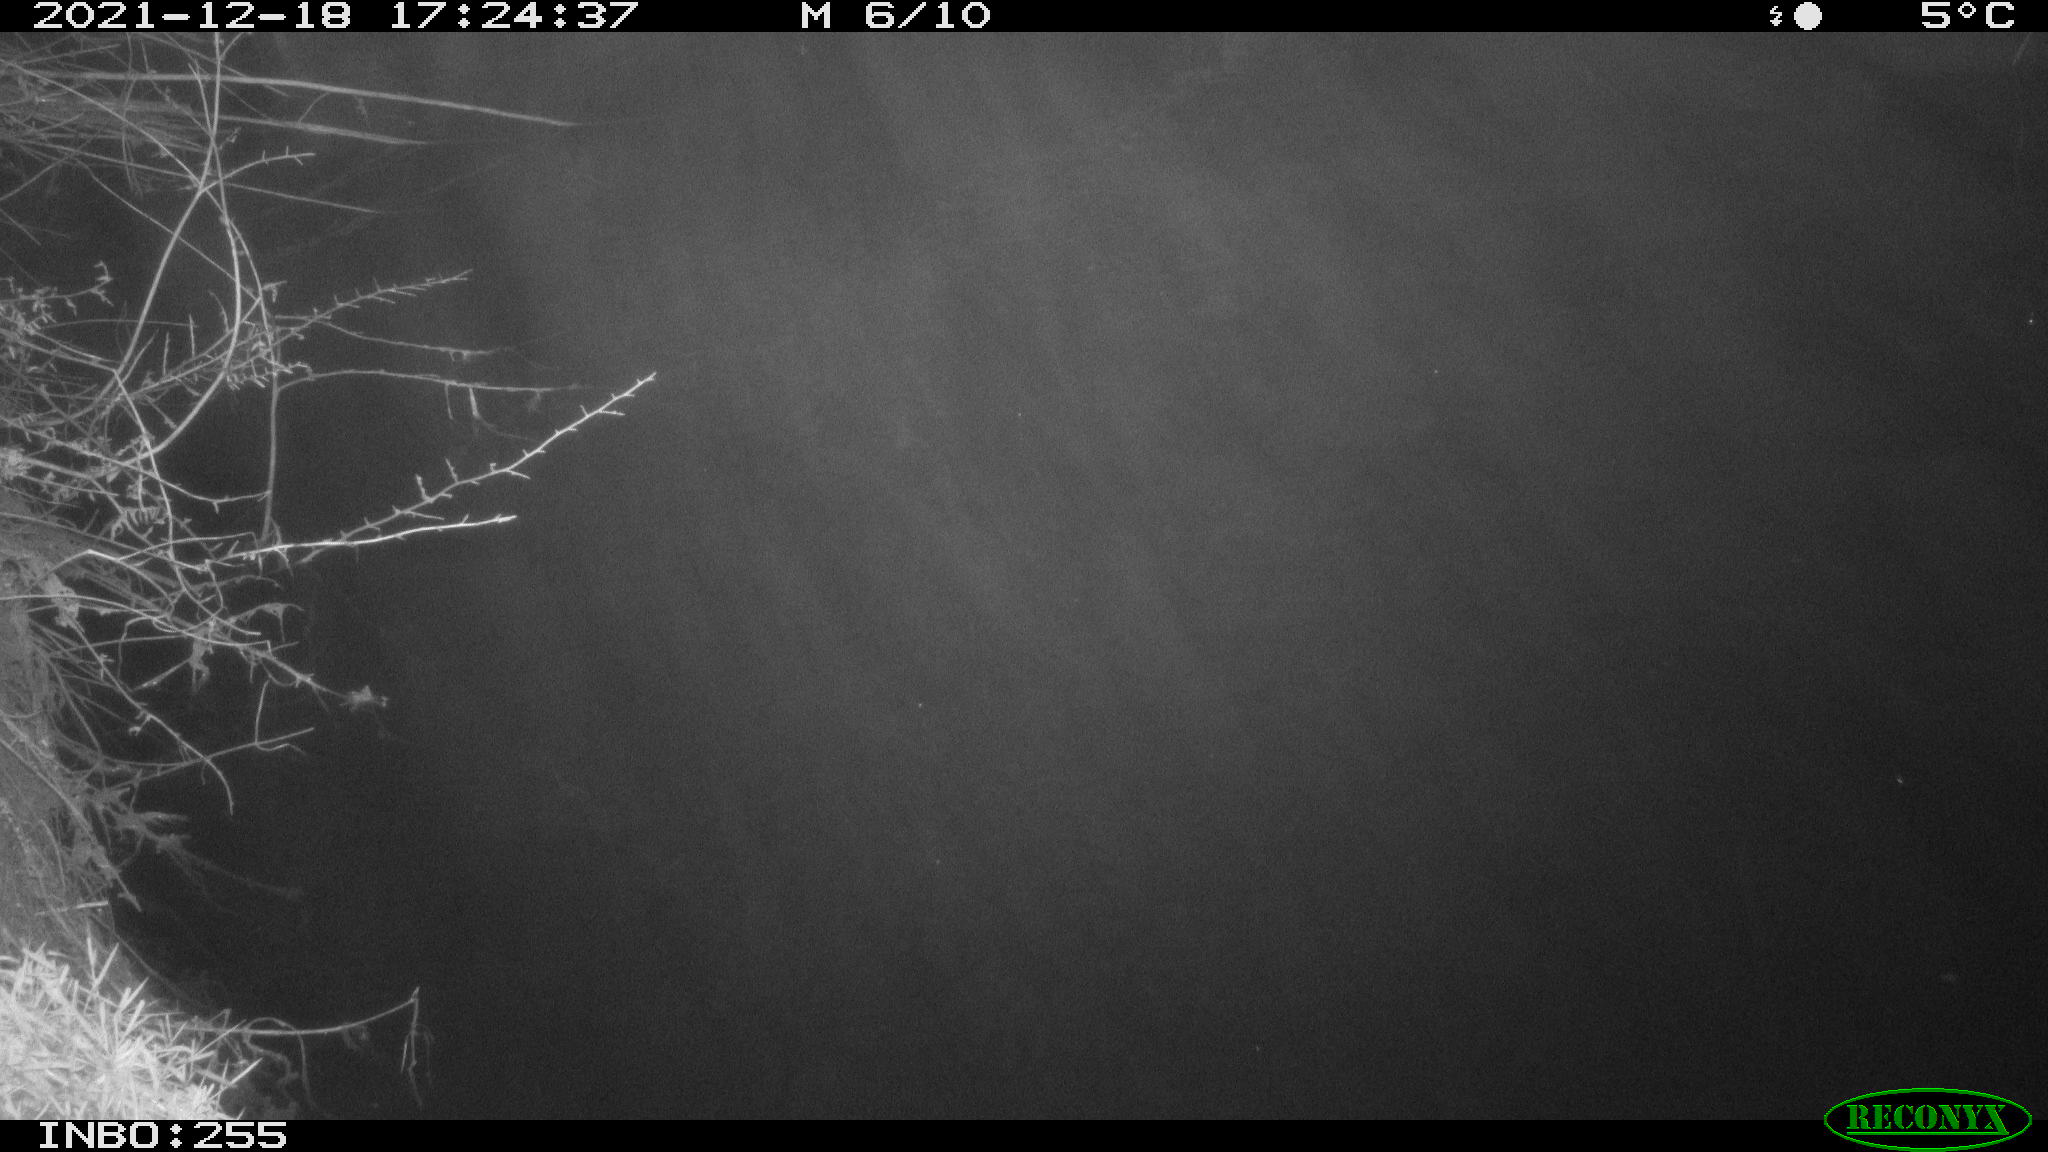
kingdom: Animalia
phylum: Chordata
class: Aves
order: Anseriformes
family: Anatidae
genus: Anas
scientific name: Anas
